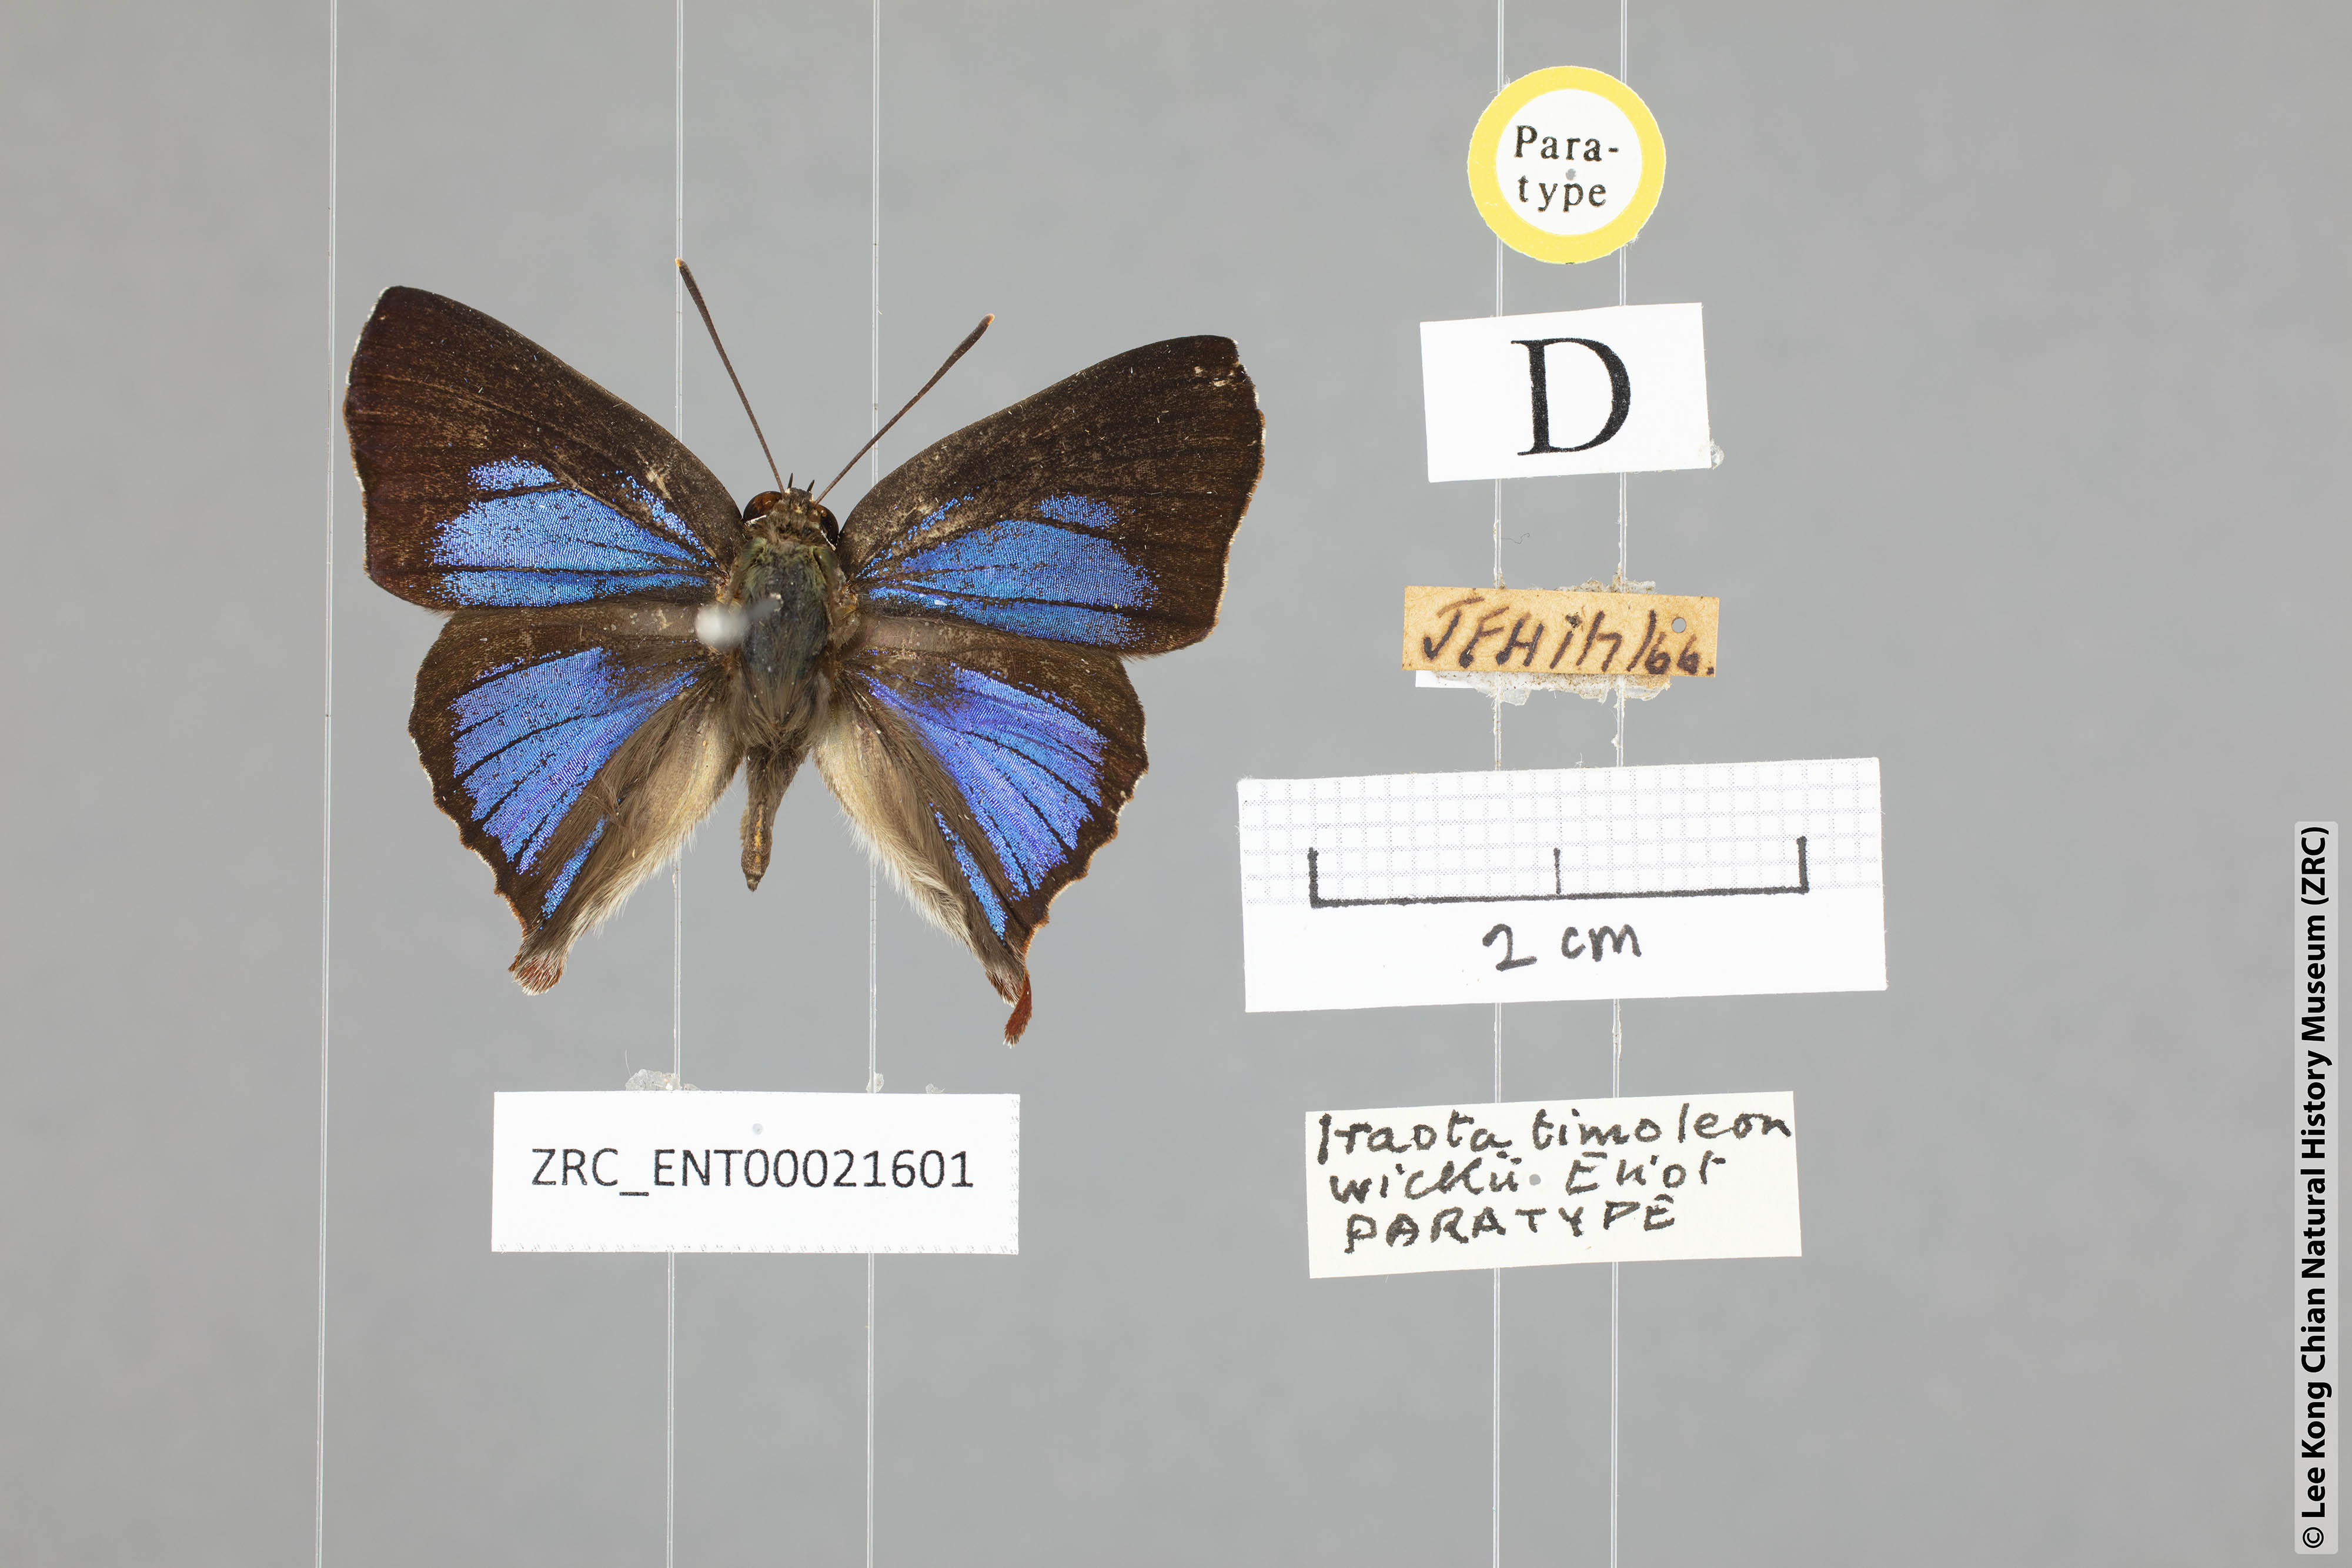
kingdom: Animalia
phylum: Arthropoda
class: Insecta
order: Lepidoptera
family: Lycaenidae
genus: Iraota
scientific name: Iraota timoleon
